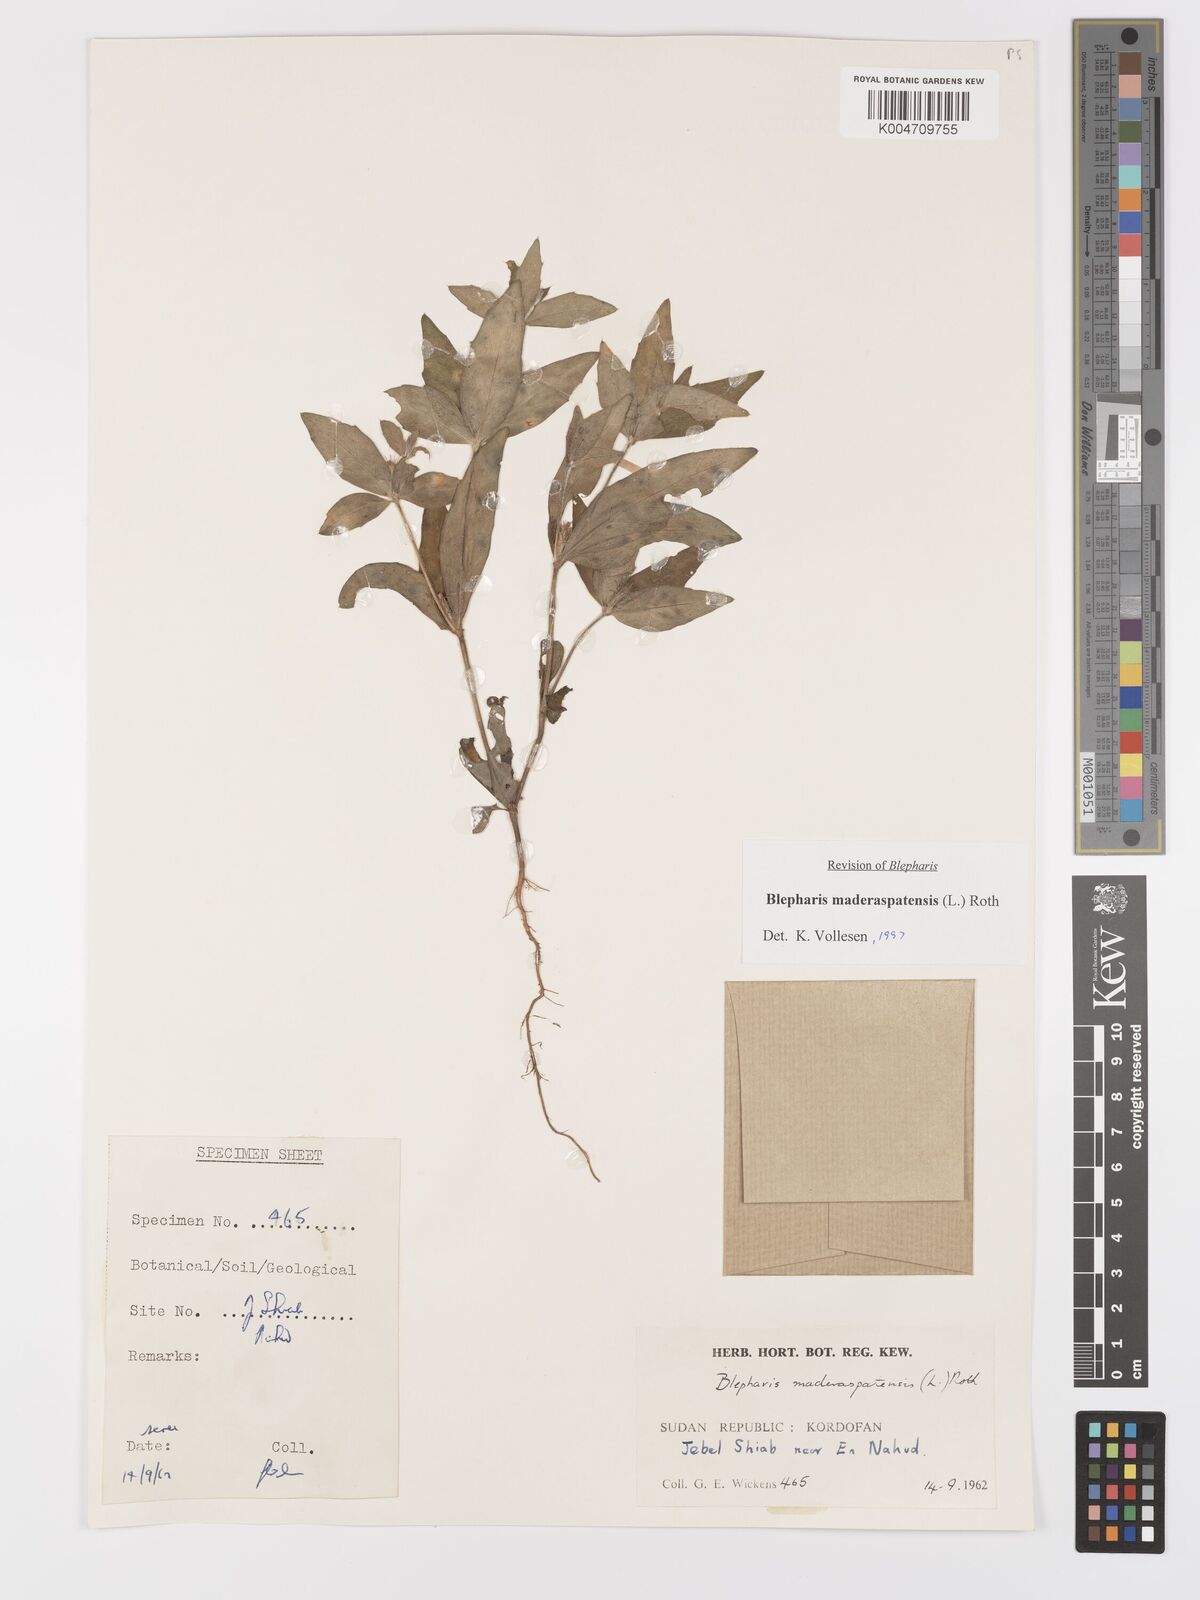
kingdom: Plantae
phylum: Tracheophyta
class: Magnoliopsida
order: Lamiales
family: Acanthaceae
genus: Blepharis
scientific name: Blepharis maderaspatensis
